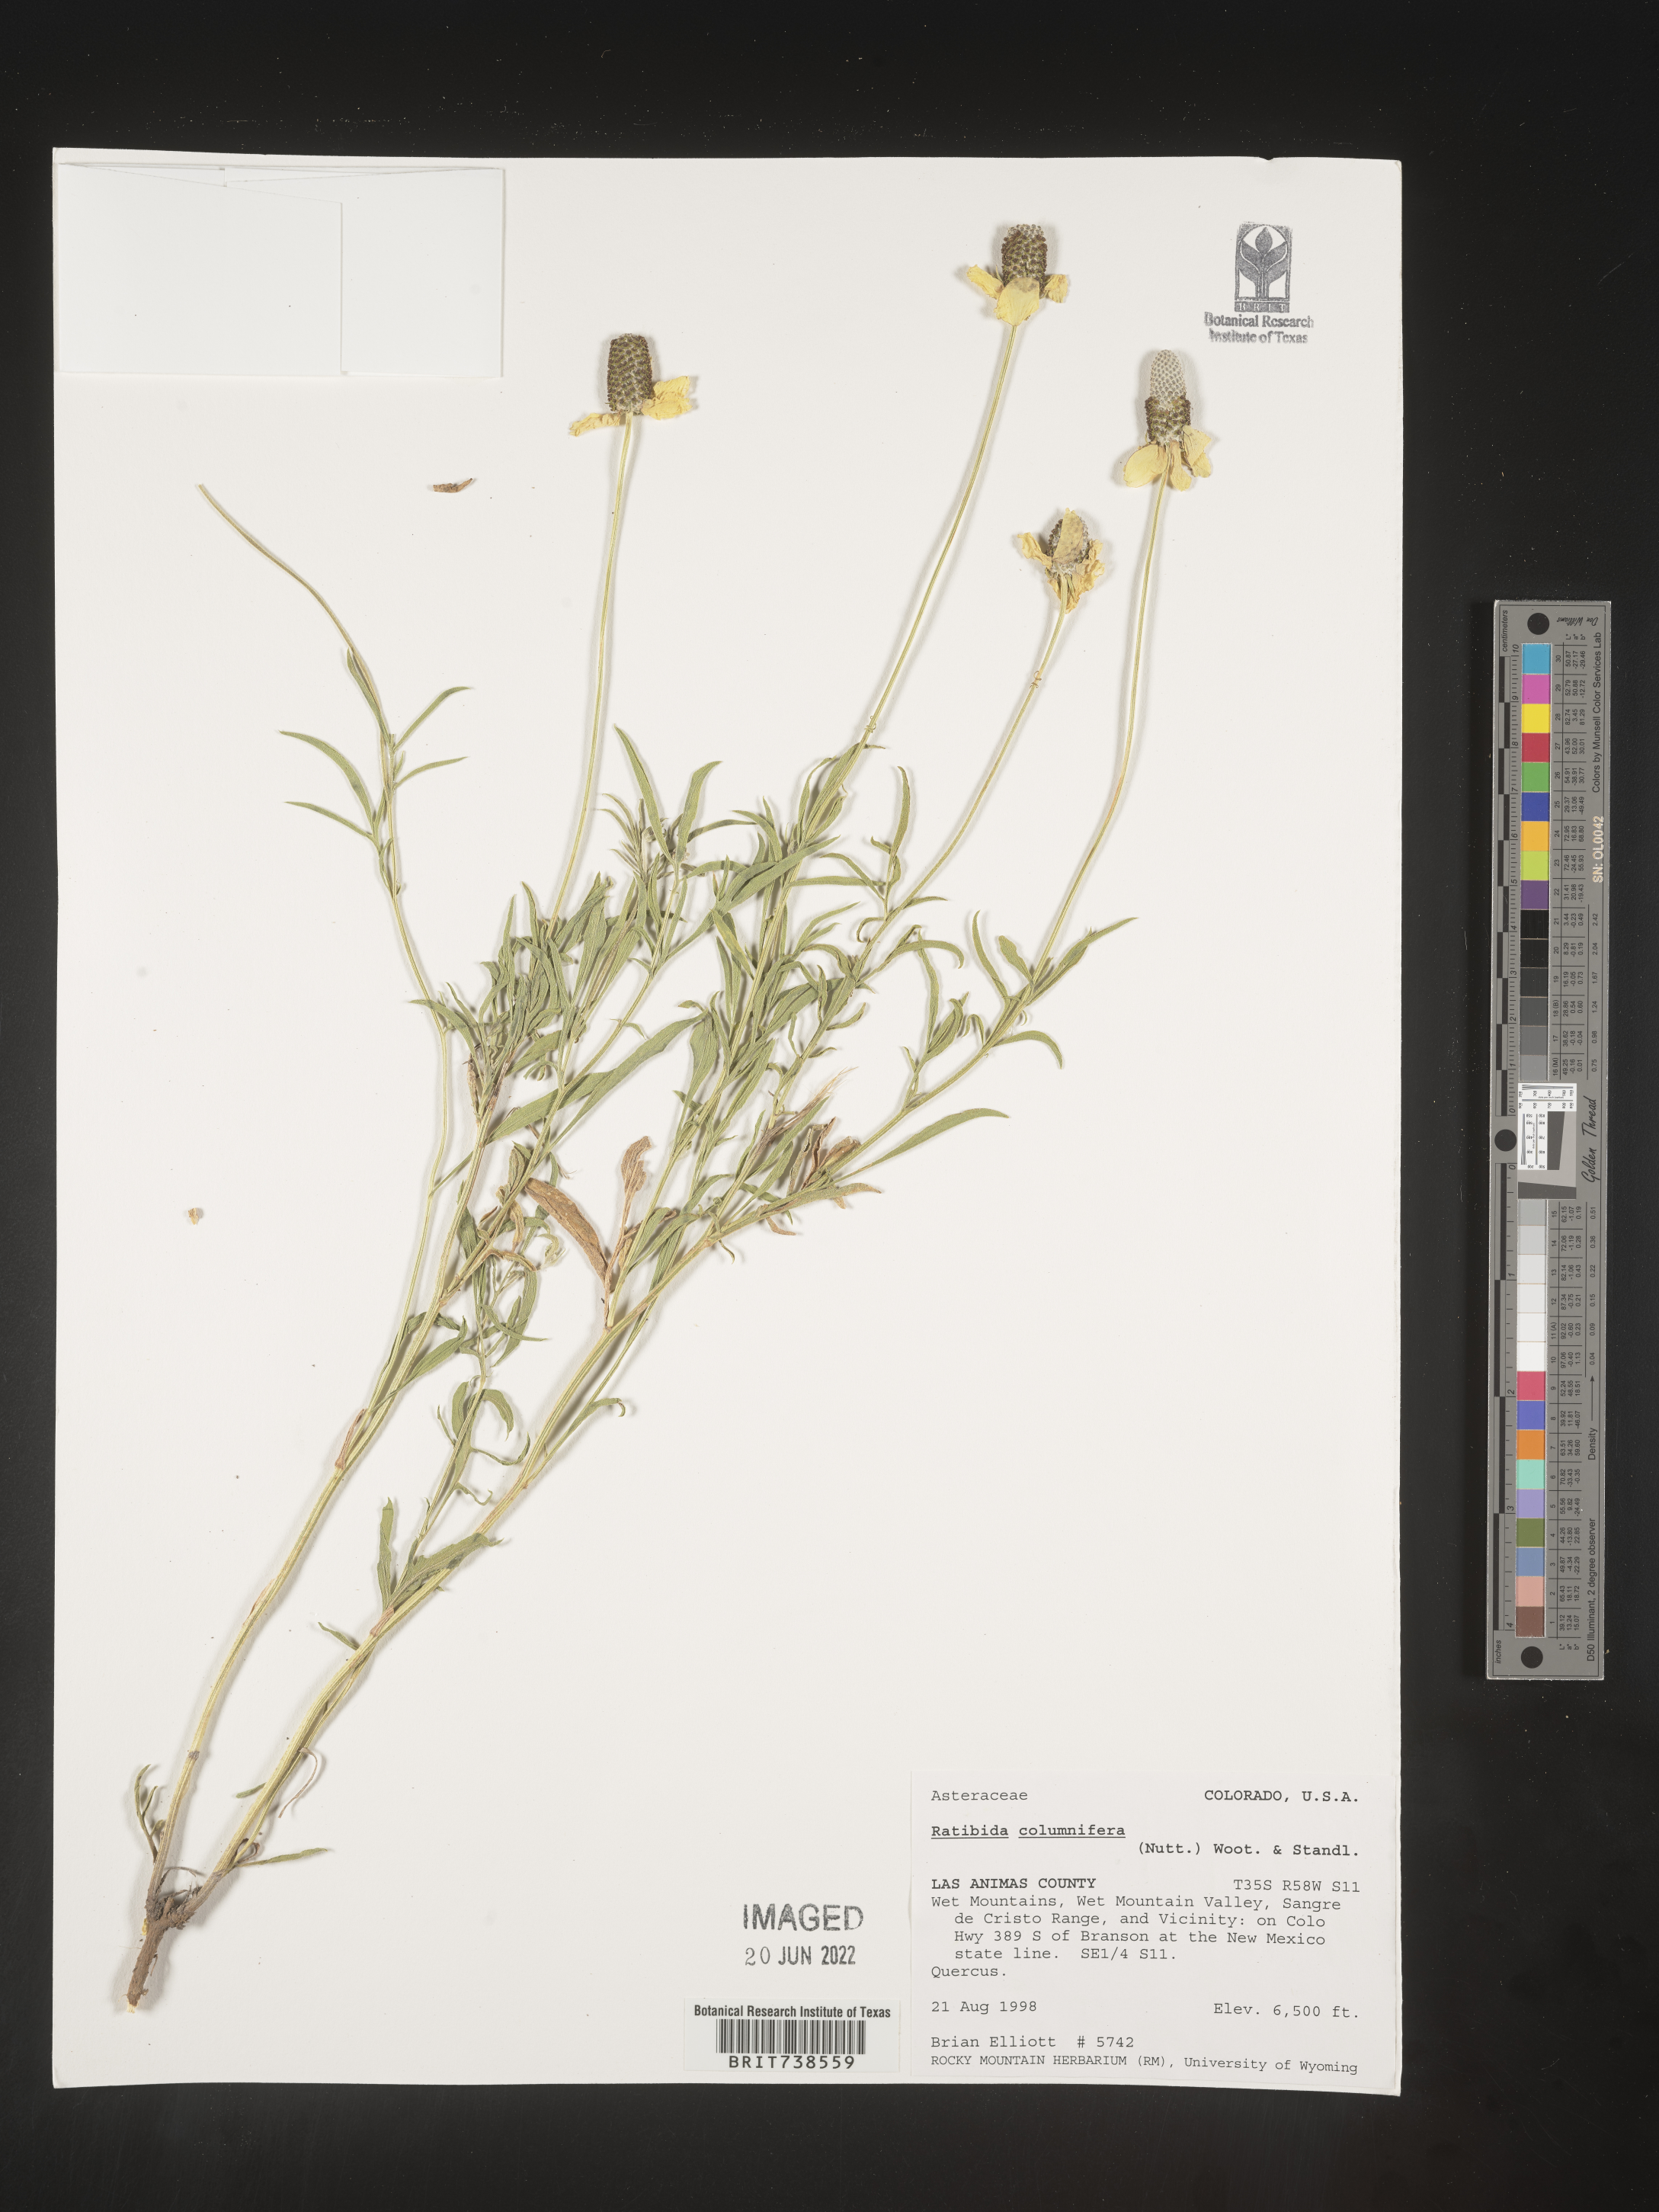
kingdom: Plantae
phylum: Tracheophyta
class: Magnoliopsida
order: Asterales
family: Asteraceae
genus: Ratibida
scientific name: Ratibida columnifera
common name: Prairie coneflower
